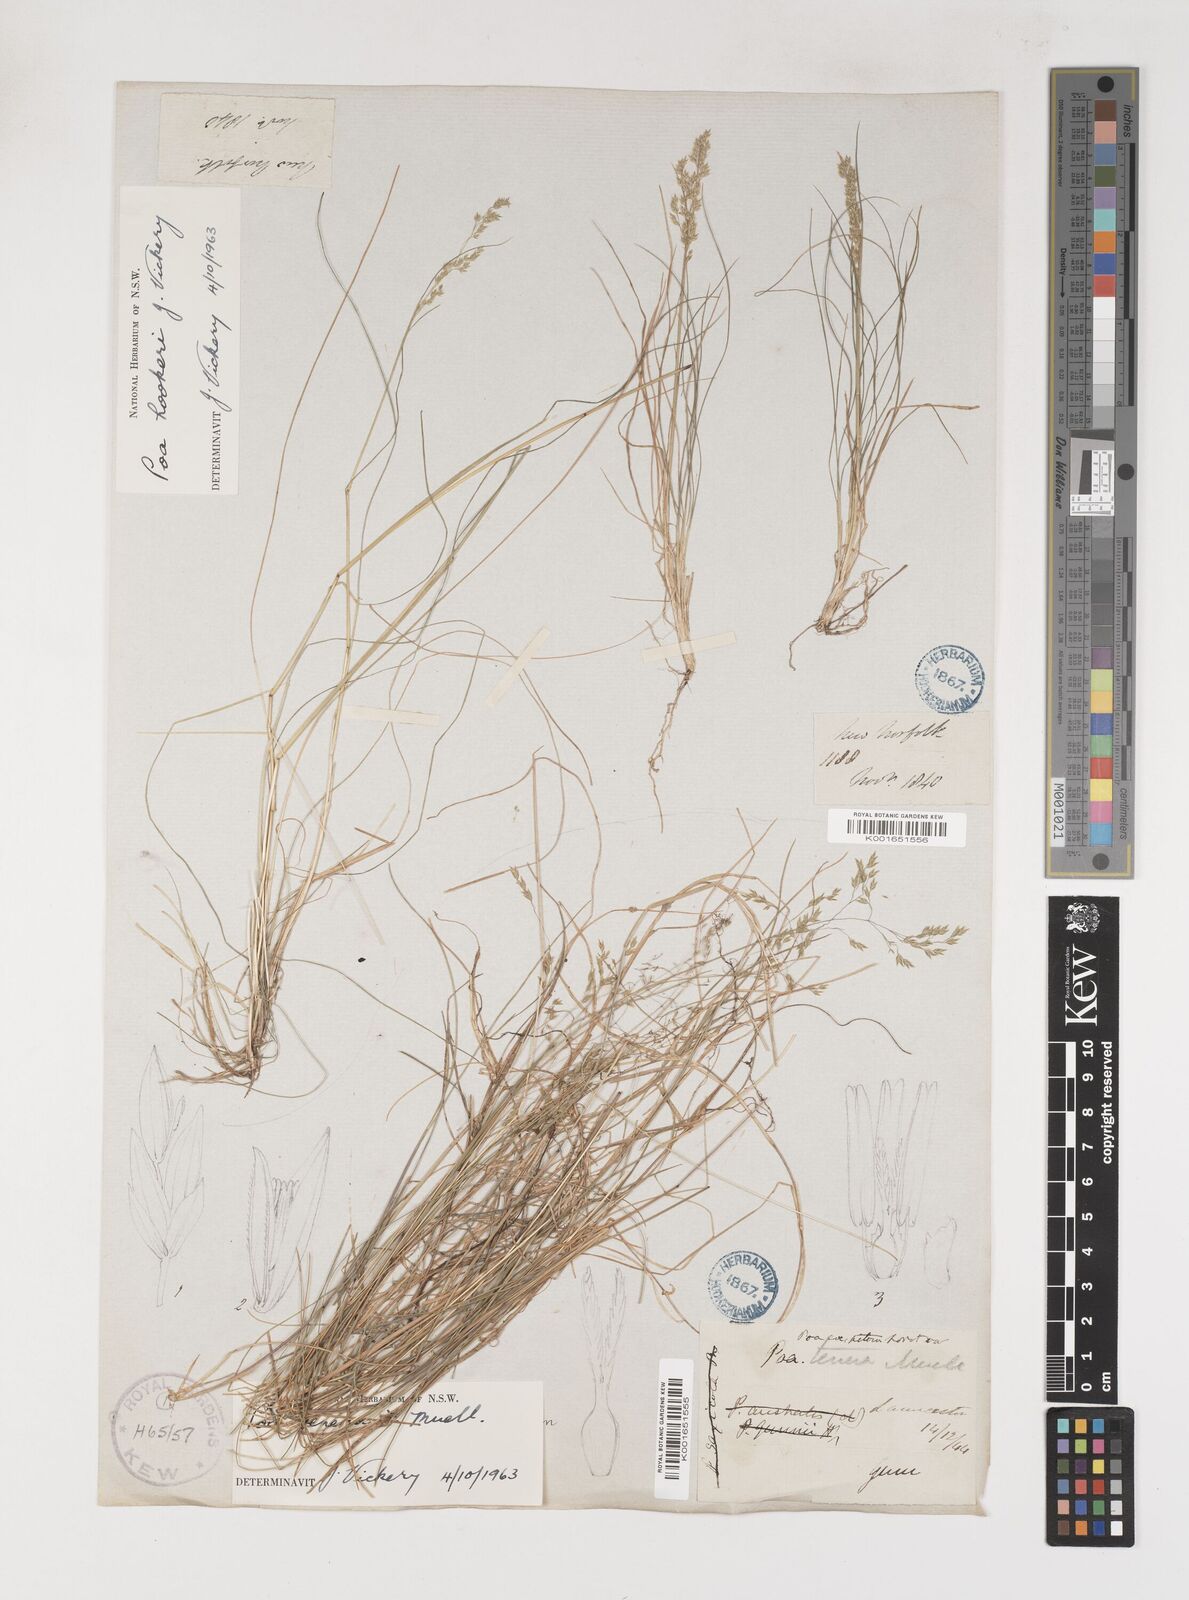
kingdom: Plantae
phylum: Tracheophyta
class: Liliopsida
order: Poales
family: Poaceae
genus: Poa
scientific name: Poa tenera
